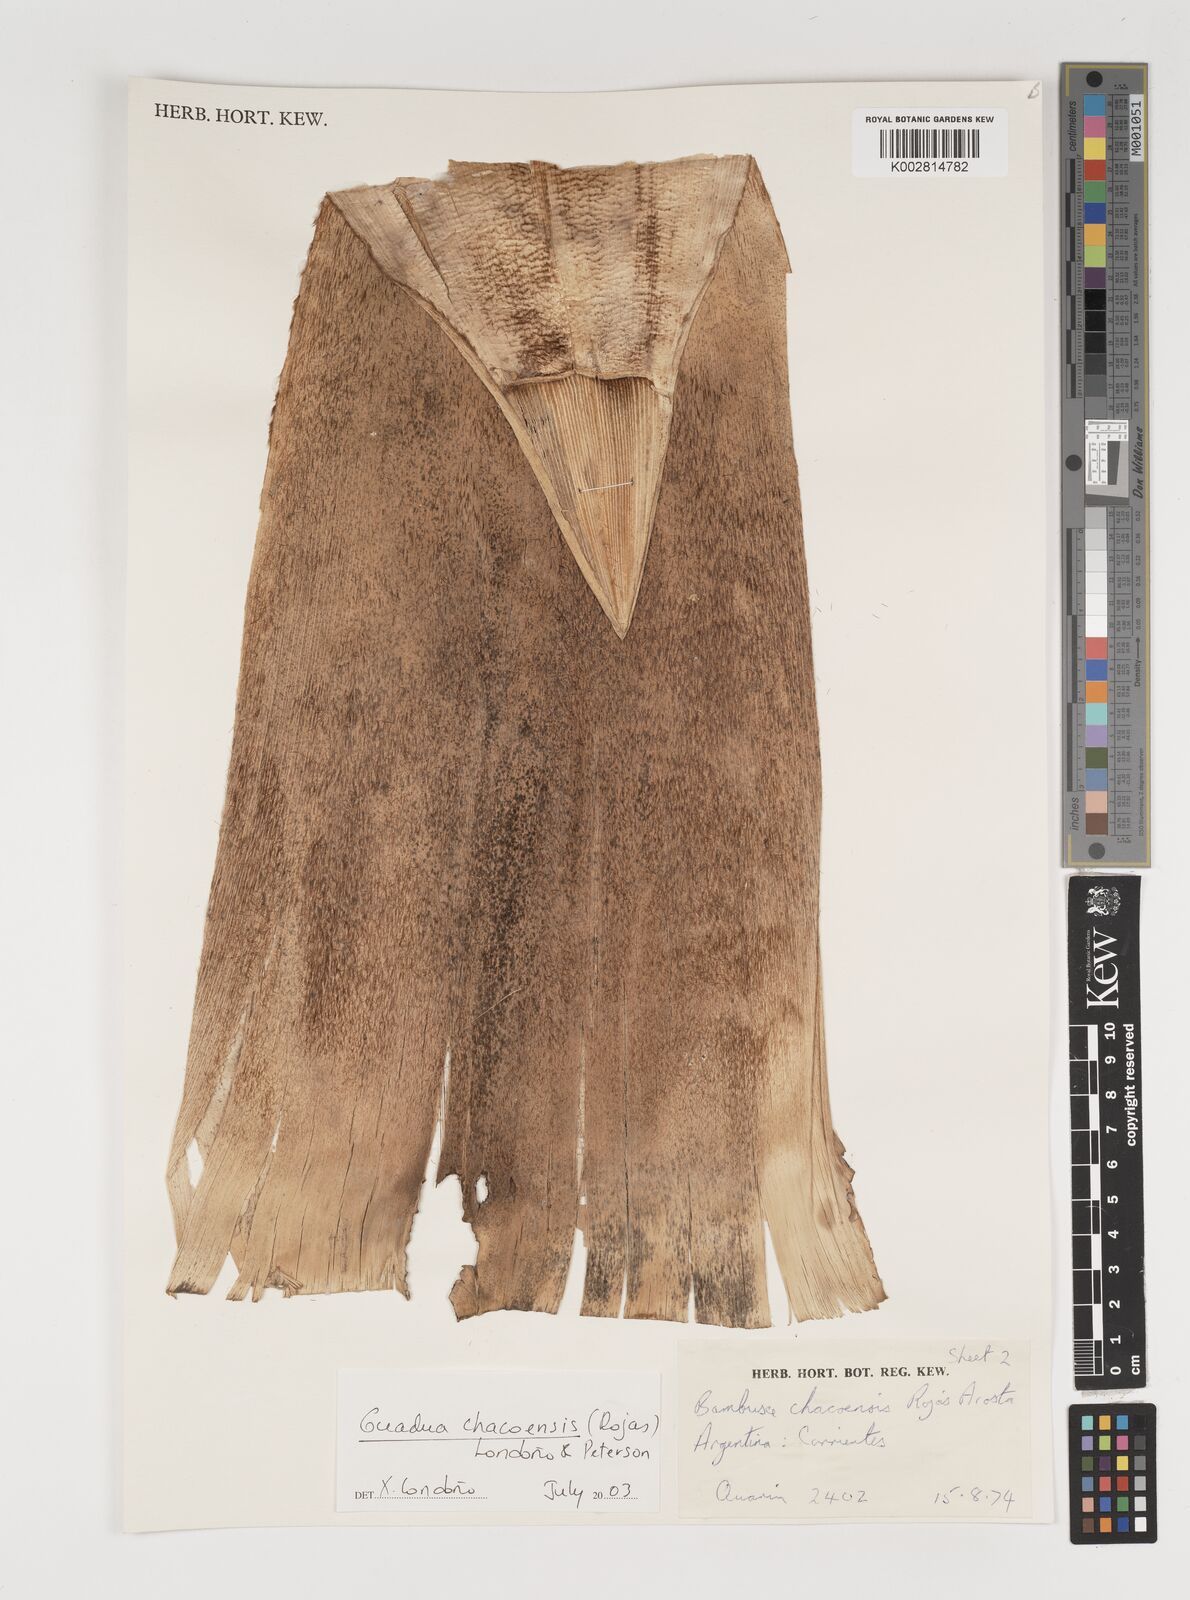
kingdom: Plantae
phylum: Tracheophyta
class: Liliopsida
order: Poales
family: Poaceae
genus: Guadua
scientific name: Guadua chacoensis
